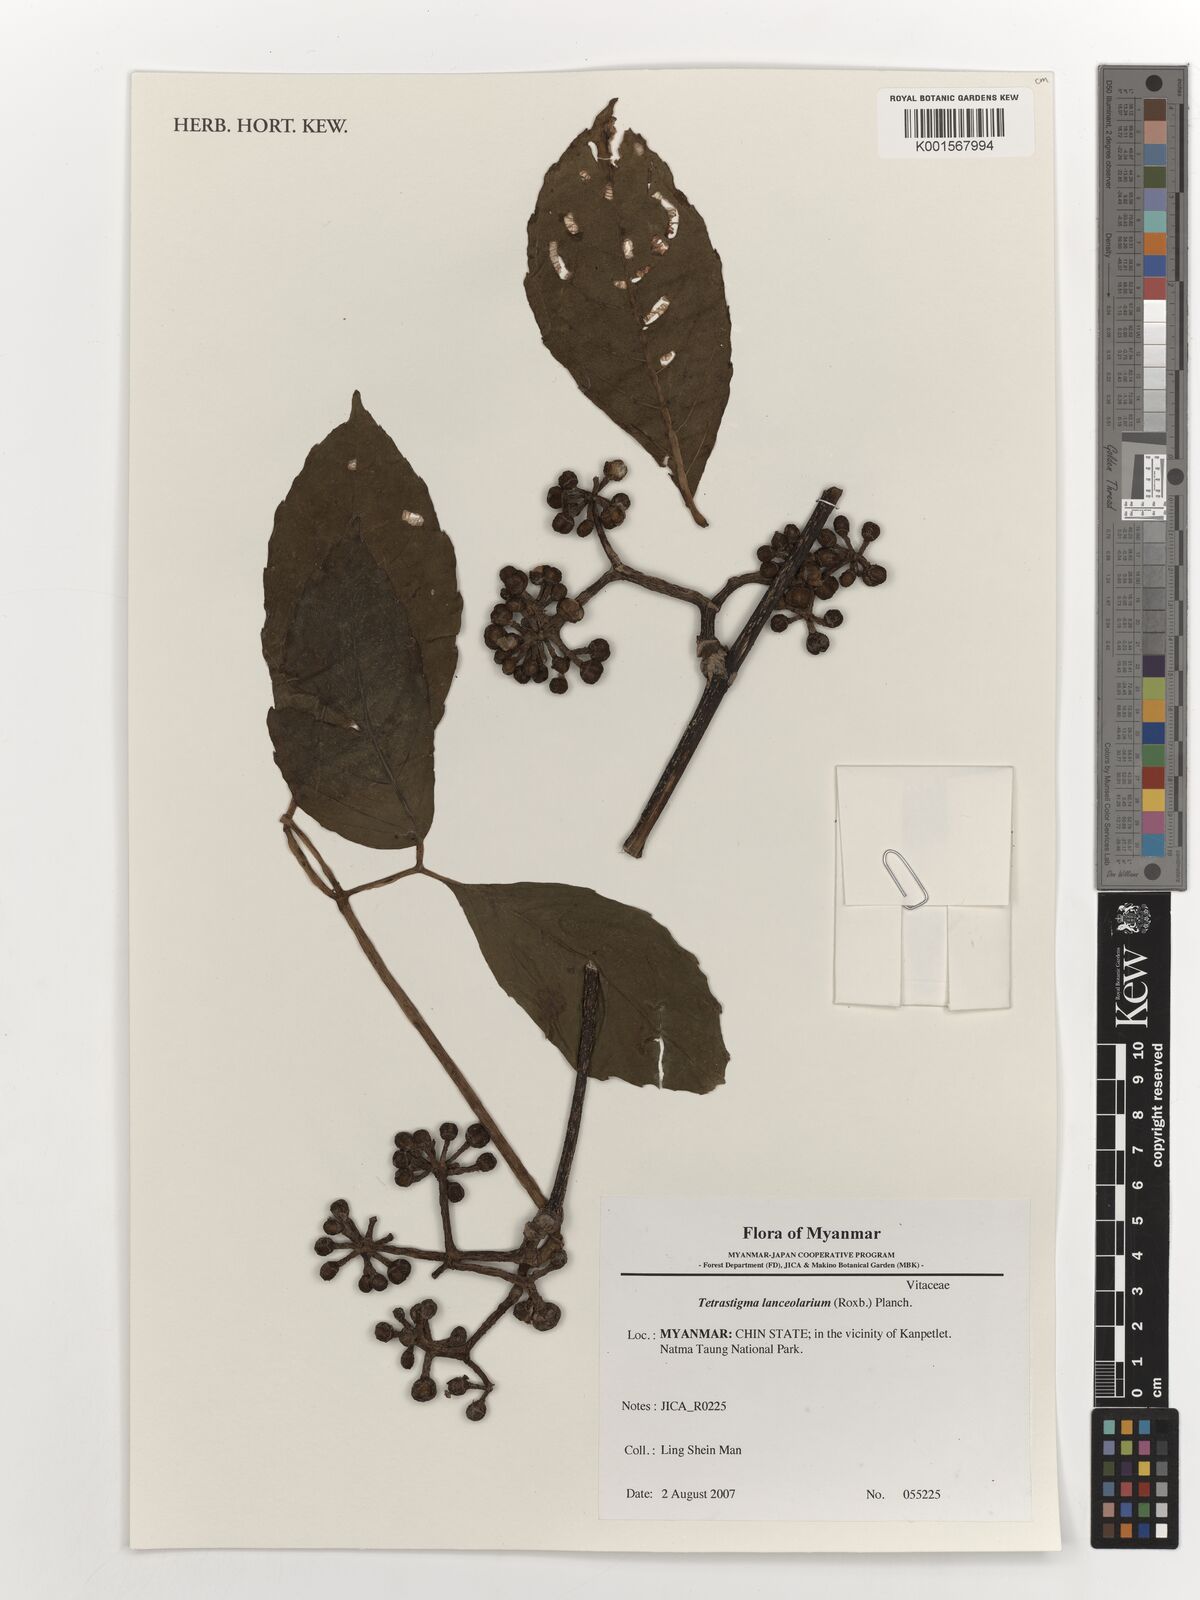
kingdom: Plantae
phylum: Tracheophyta
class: Magnoliopsida
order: Vitales
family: Vitaceae
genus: Tetrastigma
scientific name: Tetrastigma leucostaphylum
